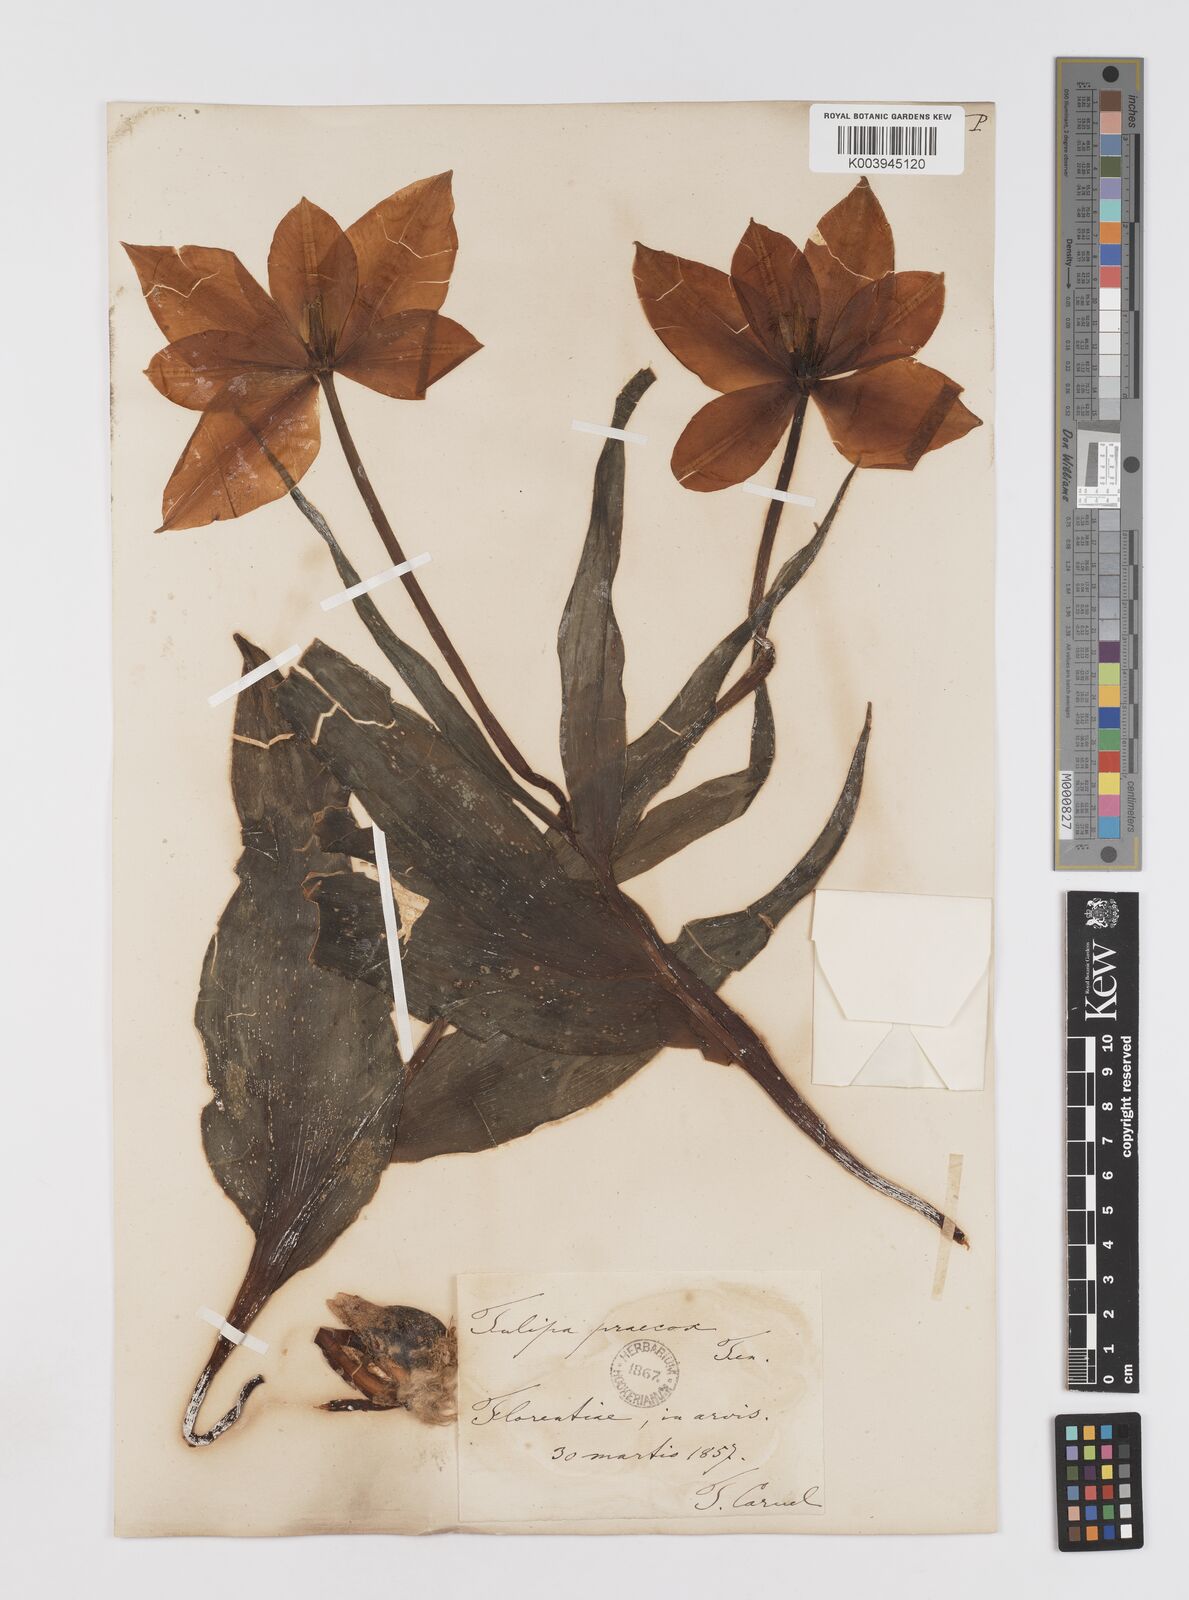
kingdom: Plantae
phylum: Tracheophyta
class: Liliopsida
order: Liliales
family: Liliaceae
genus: Tulipa
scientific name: Tulipa
